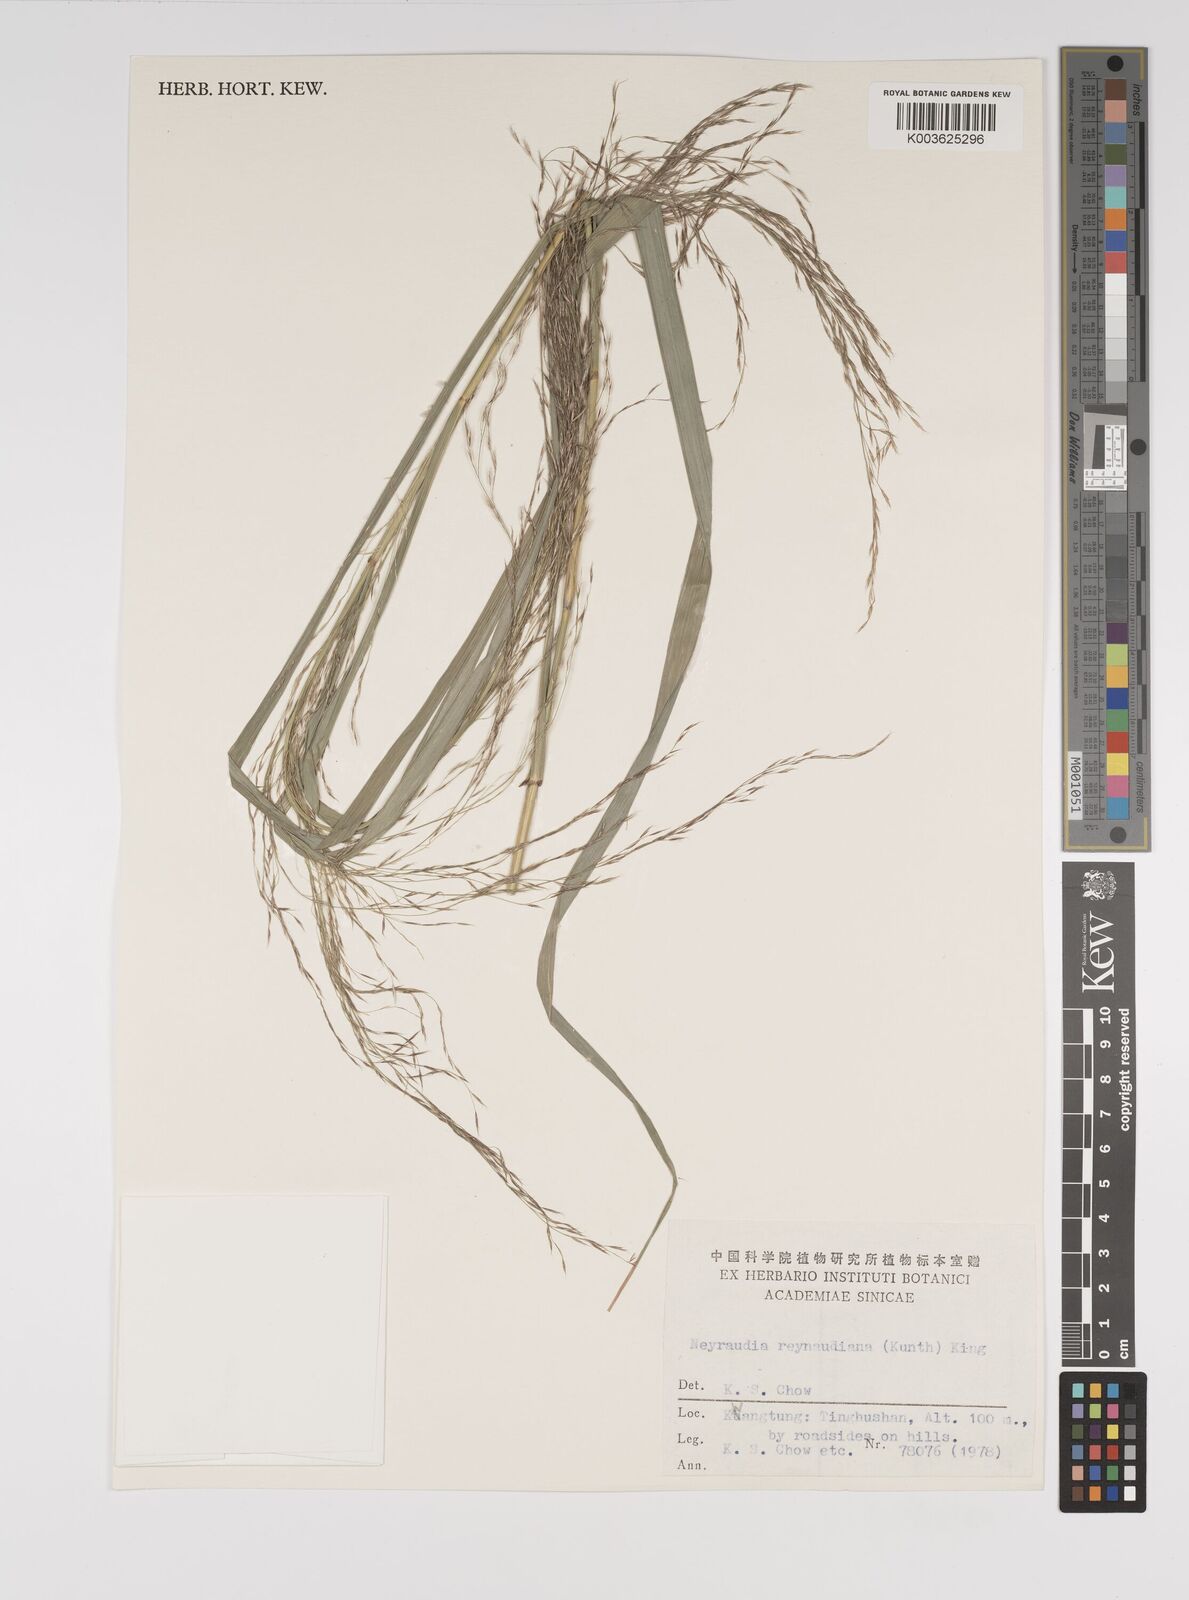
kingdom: Plantae
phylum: Tracheophyta
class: Liliopsida
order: Poales
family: Poaceae
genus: Neyraudia
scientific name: Neyraudia reynaudiana
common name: Silkreed
